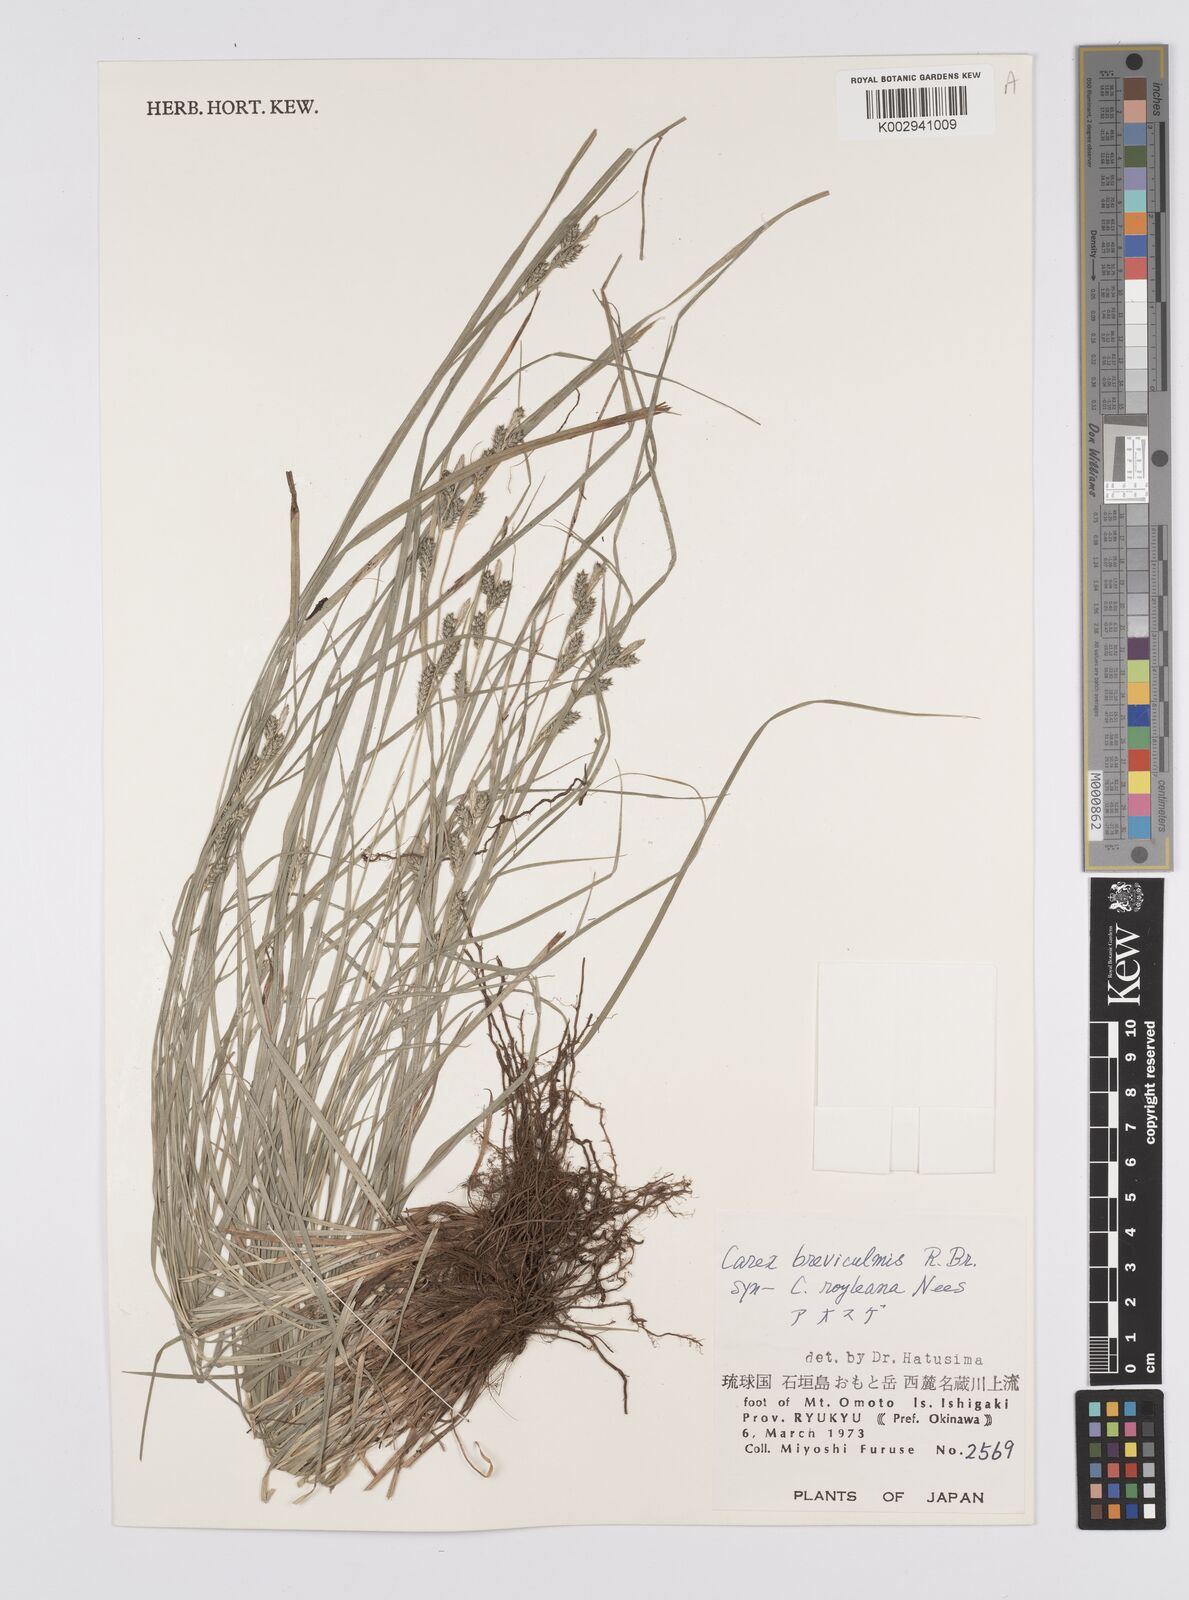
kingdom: Plantae
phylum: Tracheophyta
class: Liliopsida
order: Poales
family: Cyperaceae
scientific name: Cyperaceae
